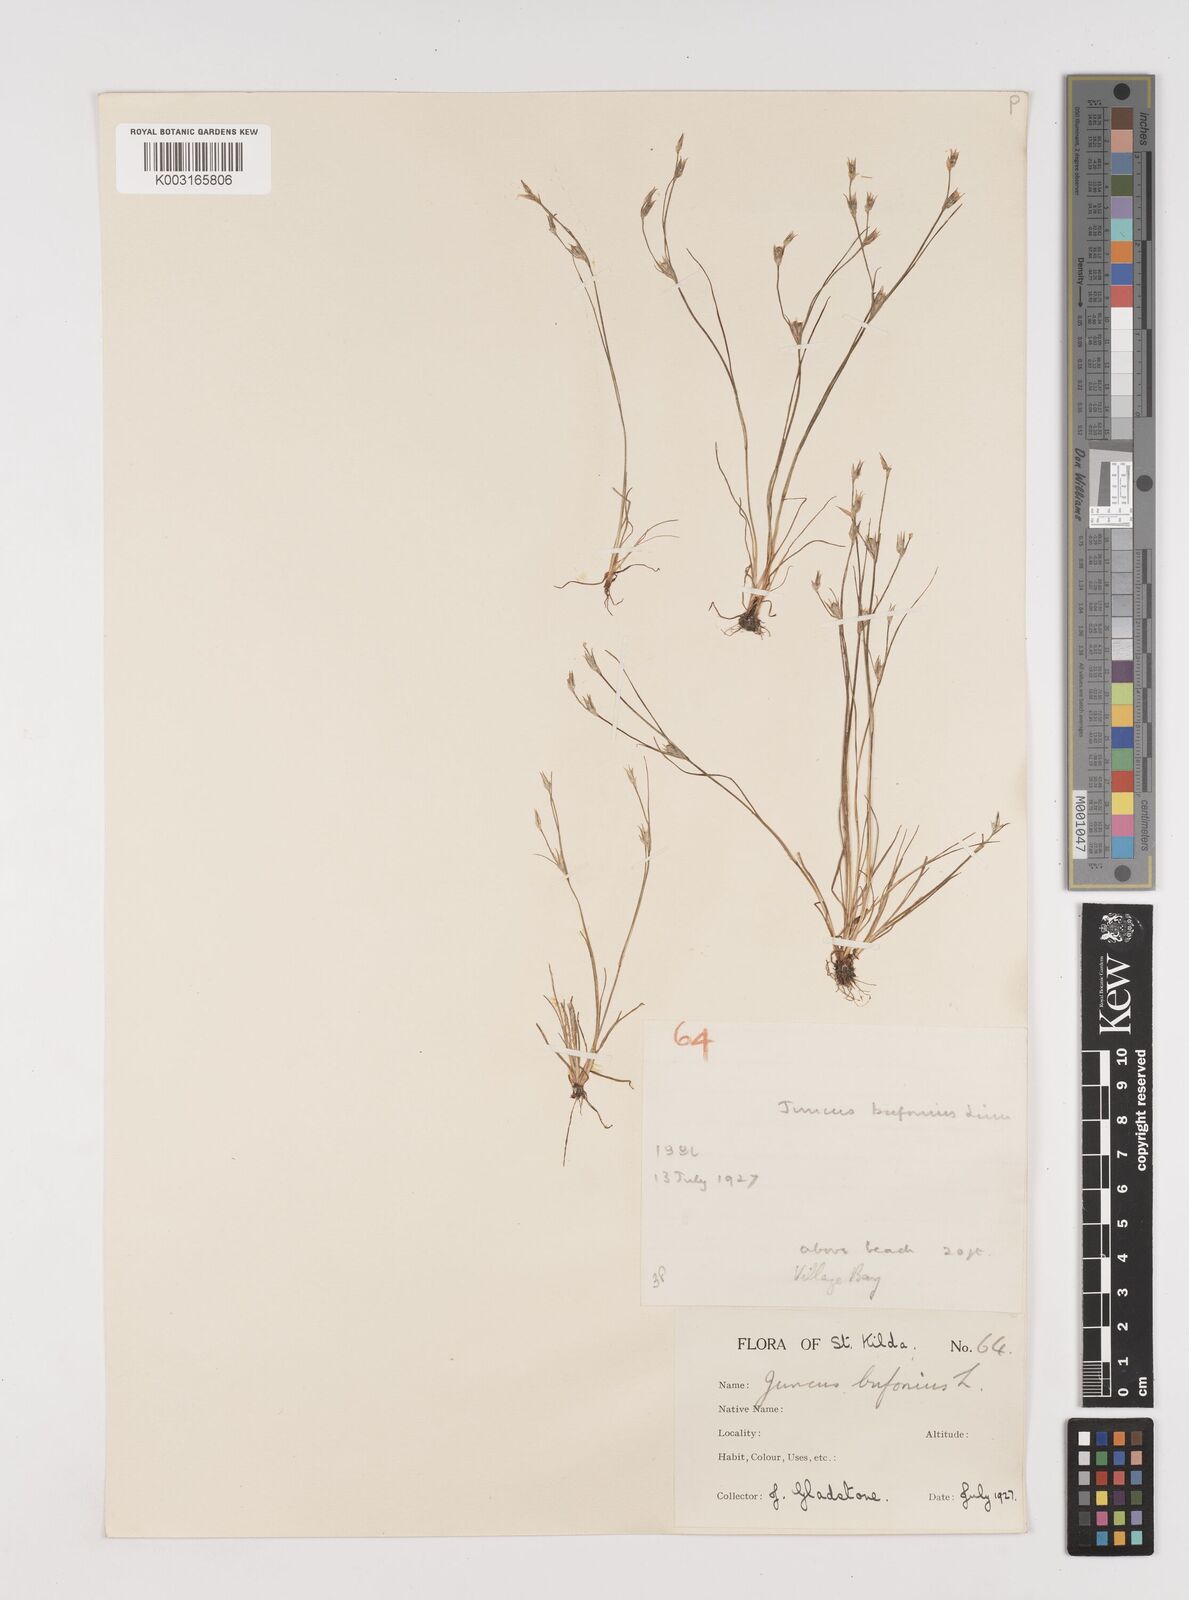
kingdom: Plantae
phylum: Tracheophyta
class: Liliopsida
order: Poales
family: Juncaceae
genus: Juncus
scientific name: Juncus bufonius
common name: Toad rush
